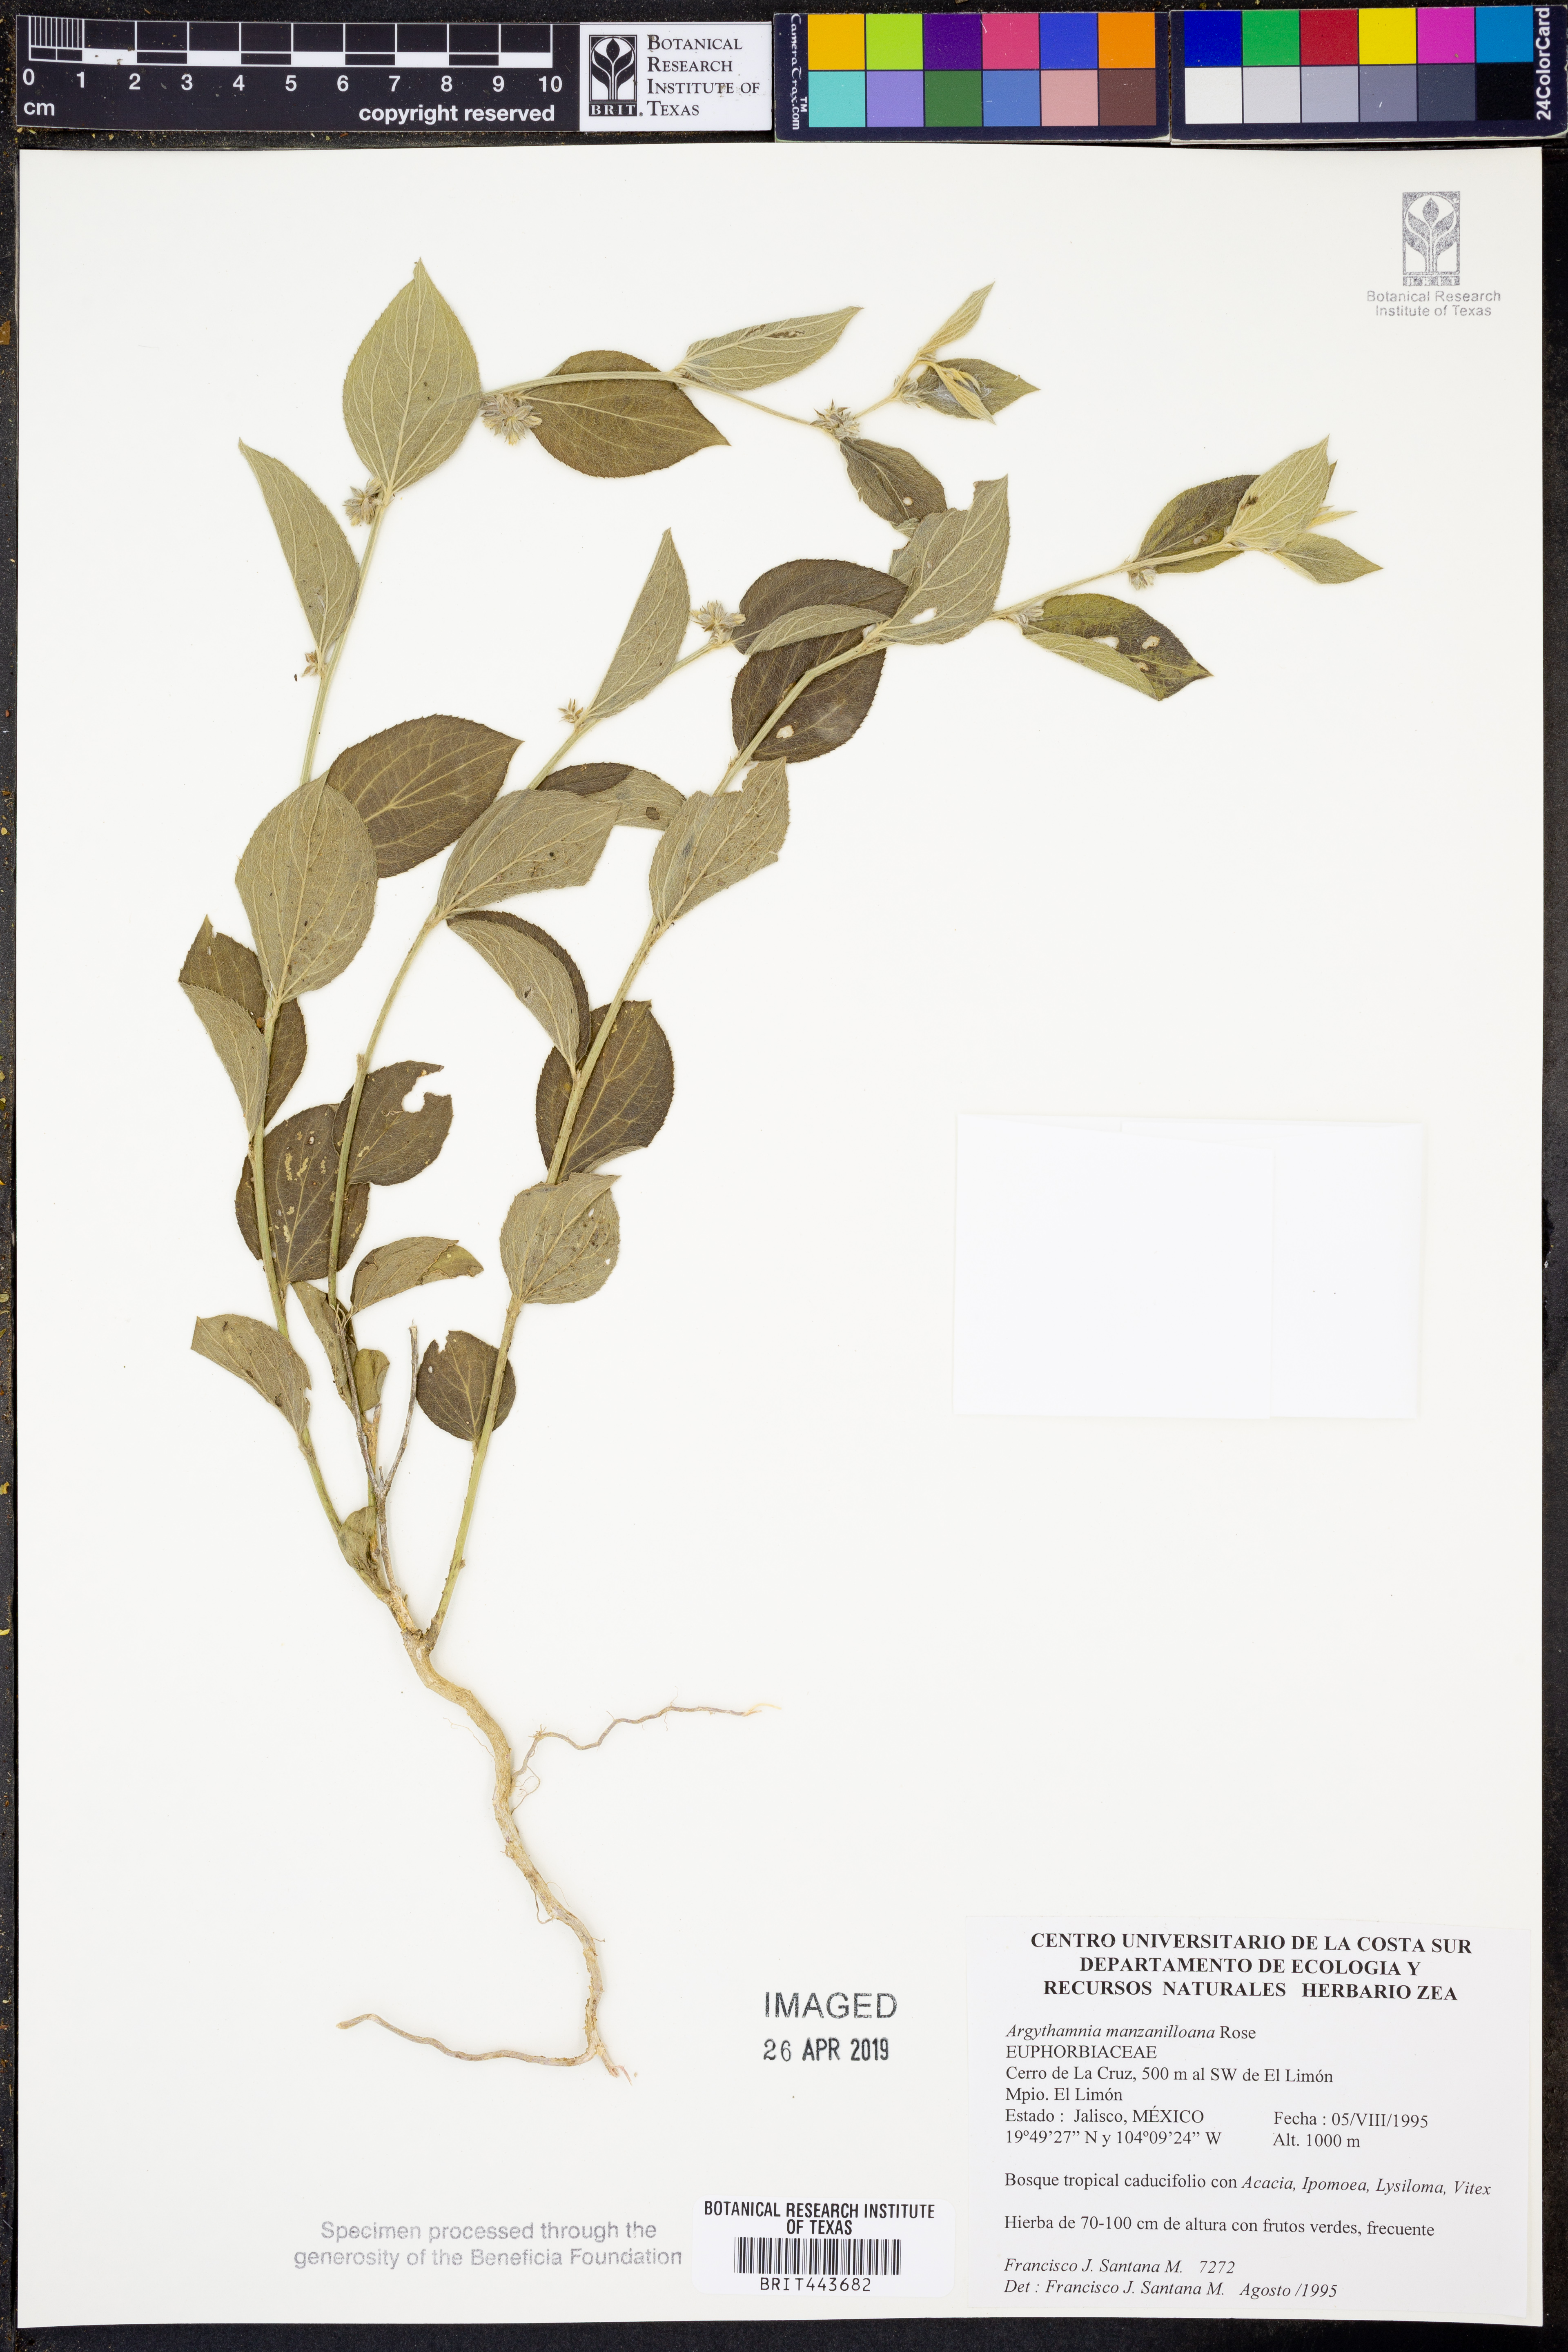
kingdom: Plantae
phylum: Tracheophyta
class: Magnoliopsida
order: Malpighiales
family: Euphorbiaceae
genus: Ditaxis
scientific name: Ditaxis manzanilloana
